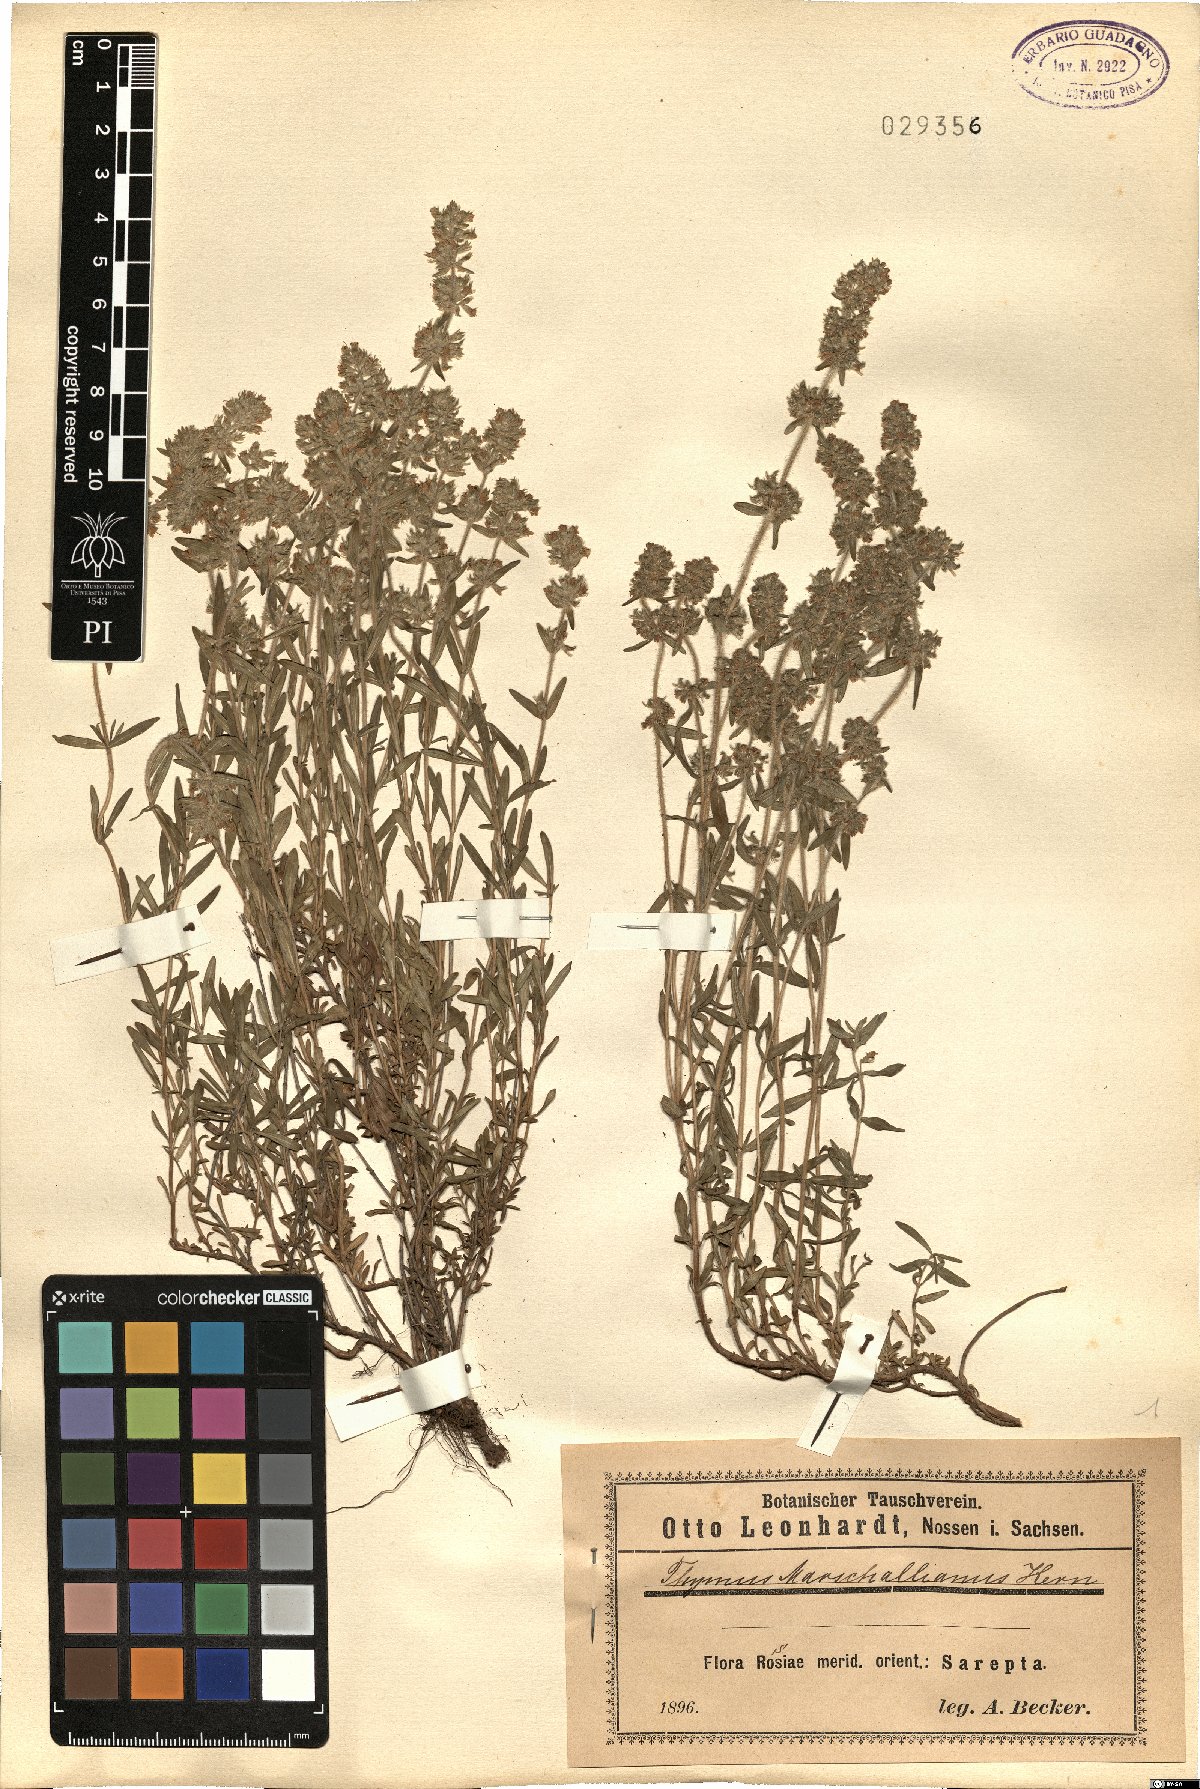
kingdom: Plantae
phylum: Tracheophyta
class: Magnoliopsida
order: Lamiales
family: Lamiaceae
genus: Thymus
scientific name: Thymus pannonicus
